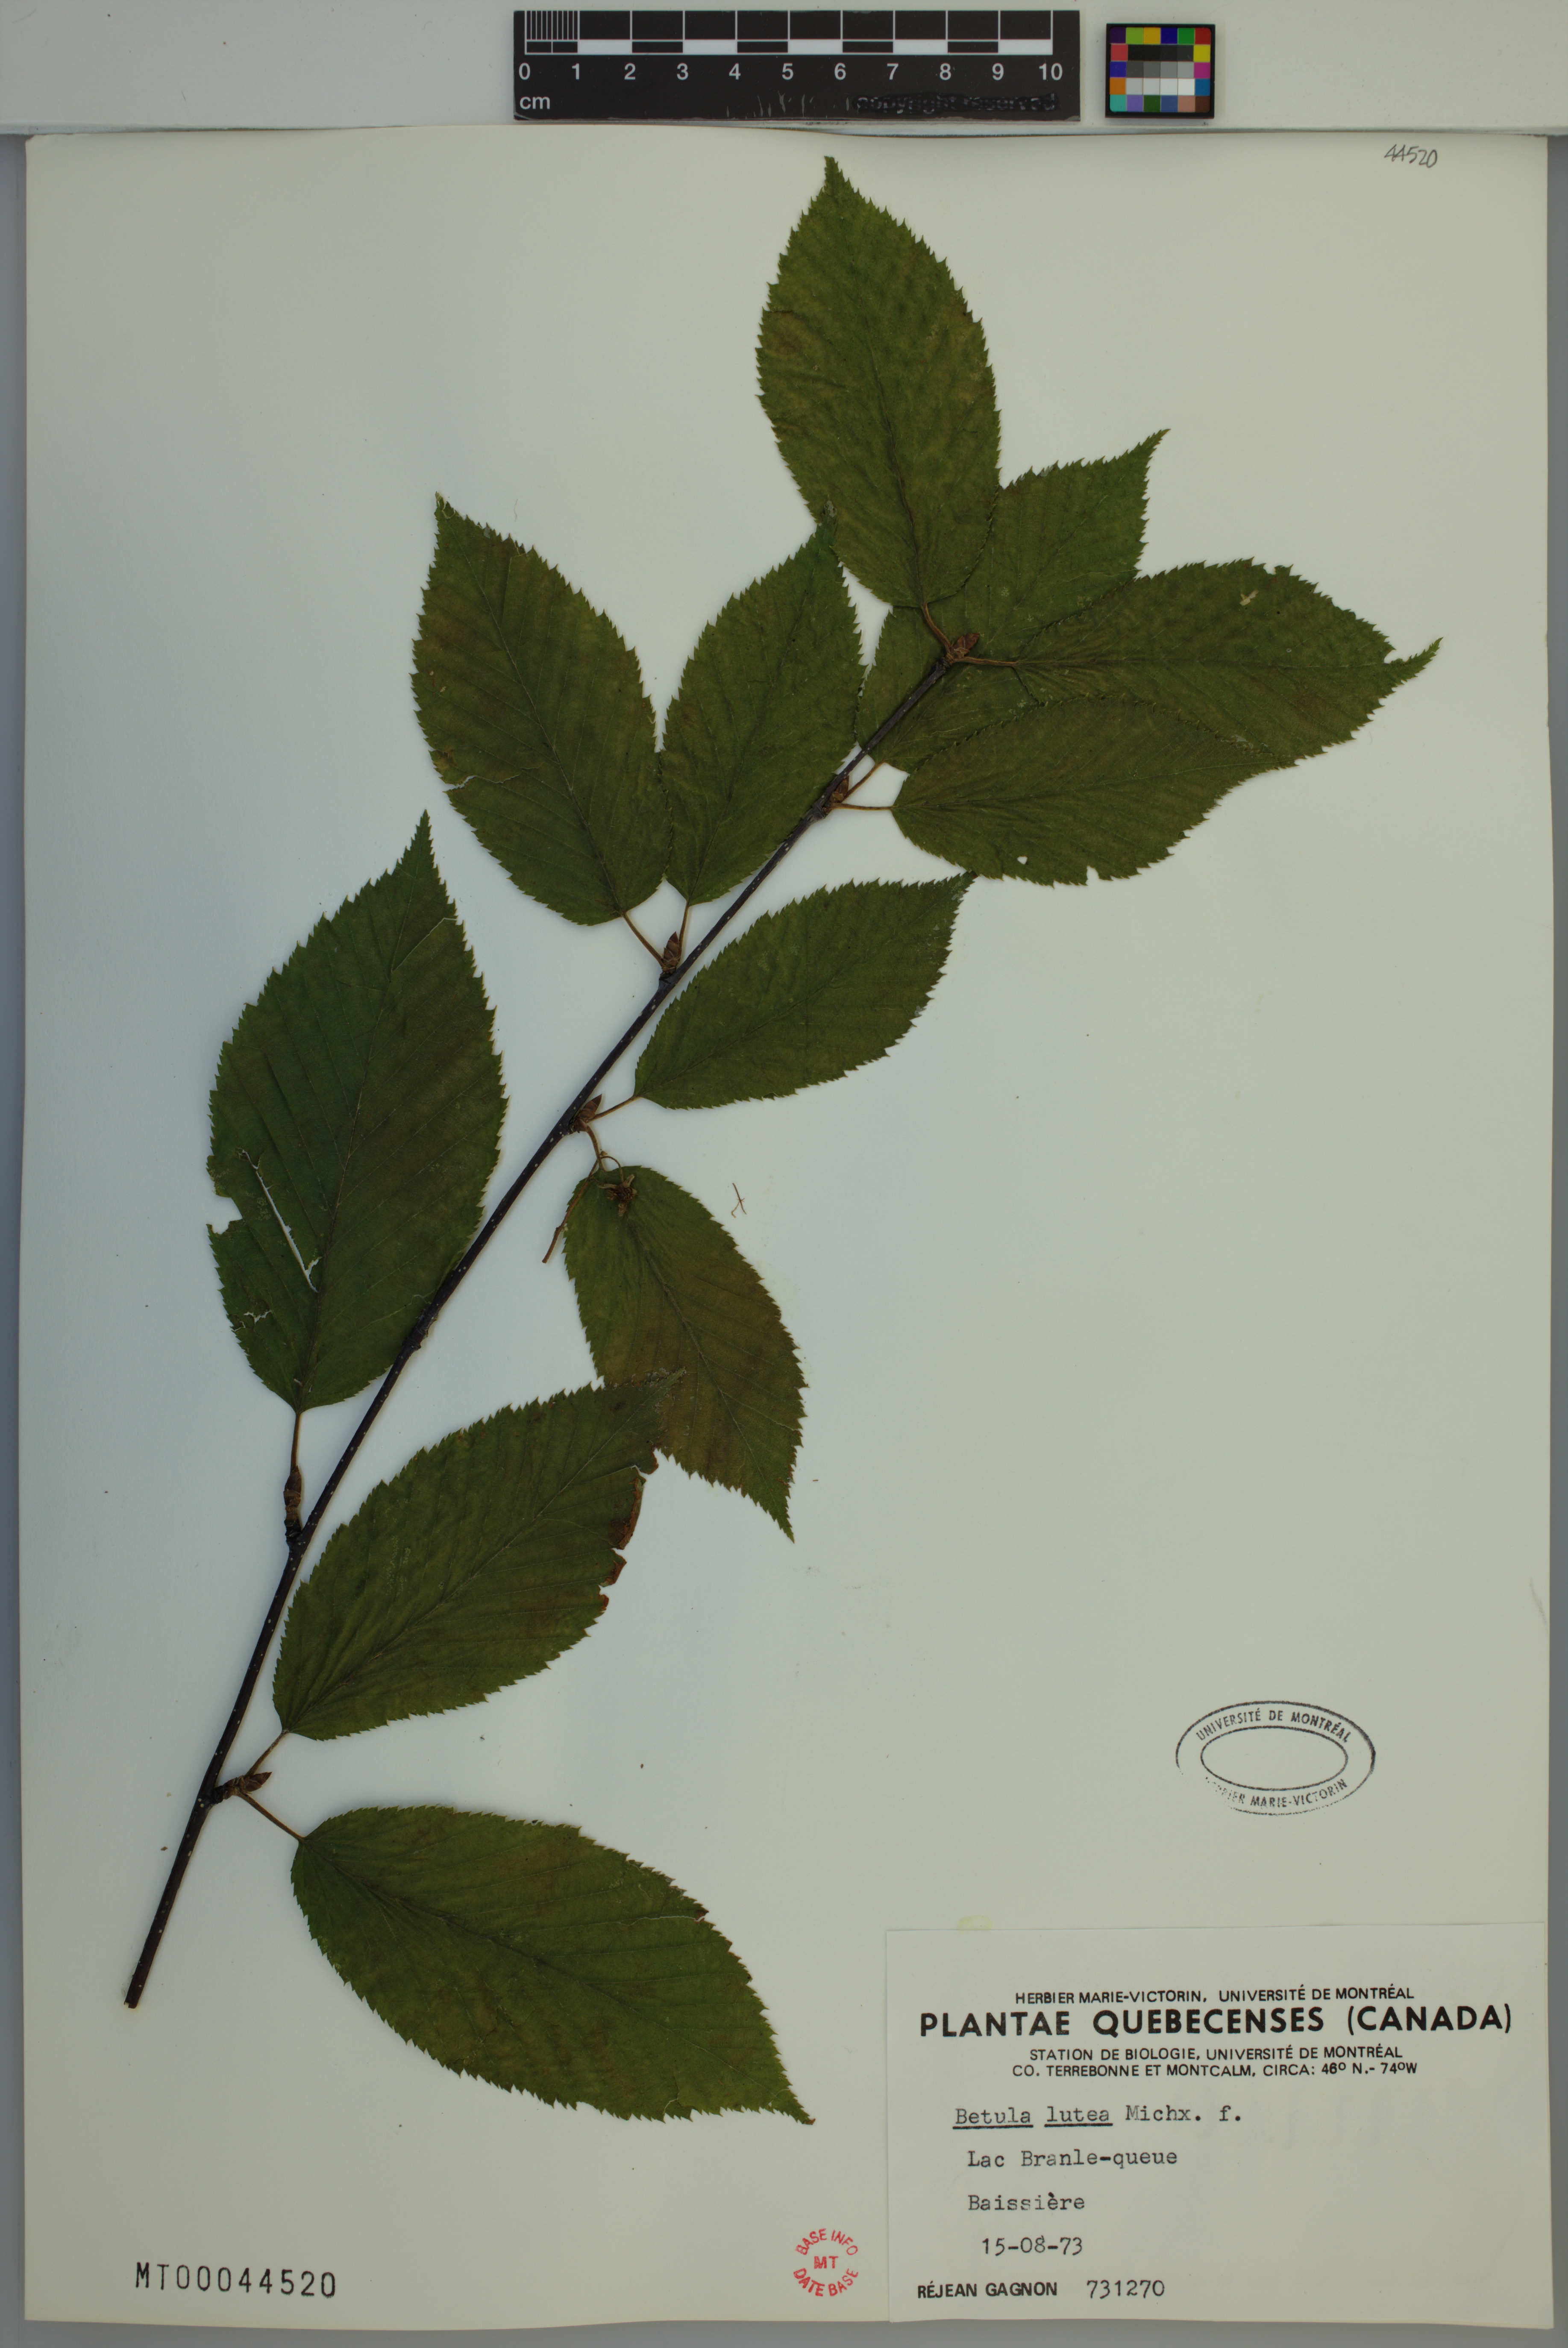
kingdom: Plantae
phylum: Tracheophyta
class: Magnoliopsida
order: Fagales
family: Betulaceae
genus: Betula
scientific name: Betula alleghaniensis
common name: Yellow birch
